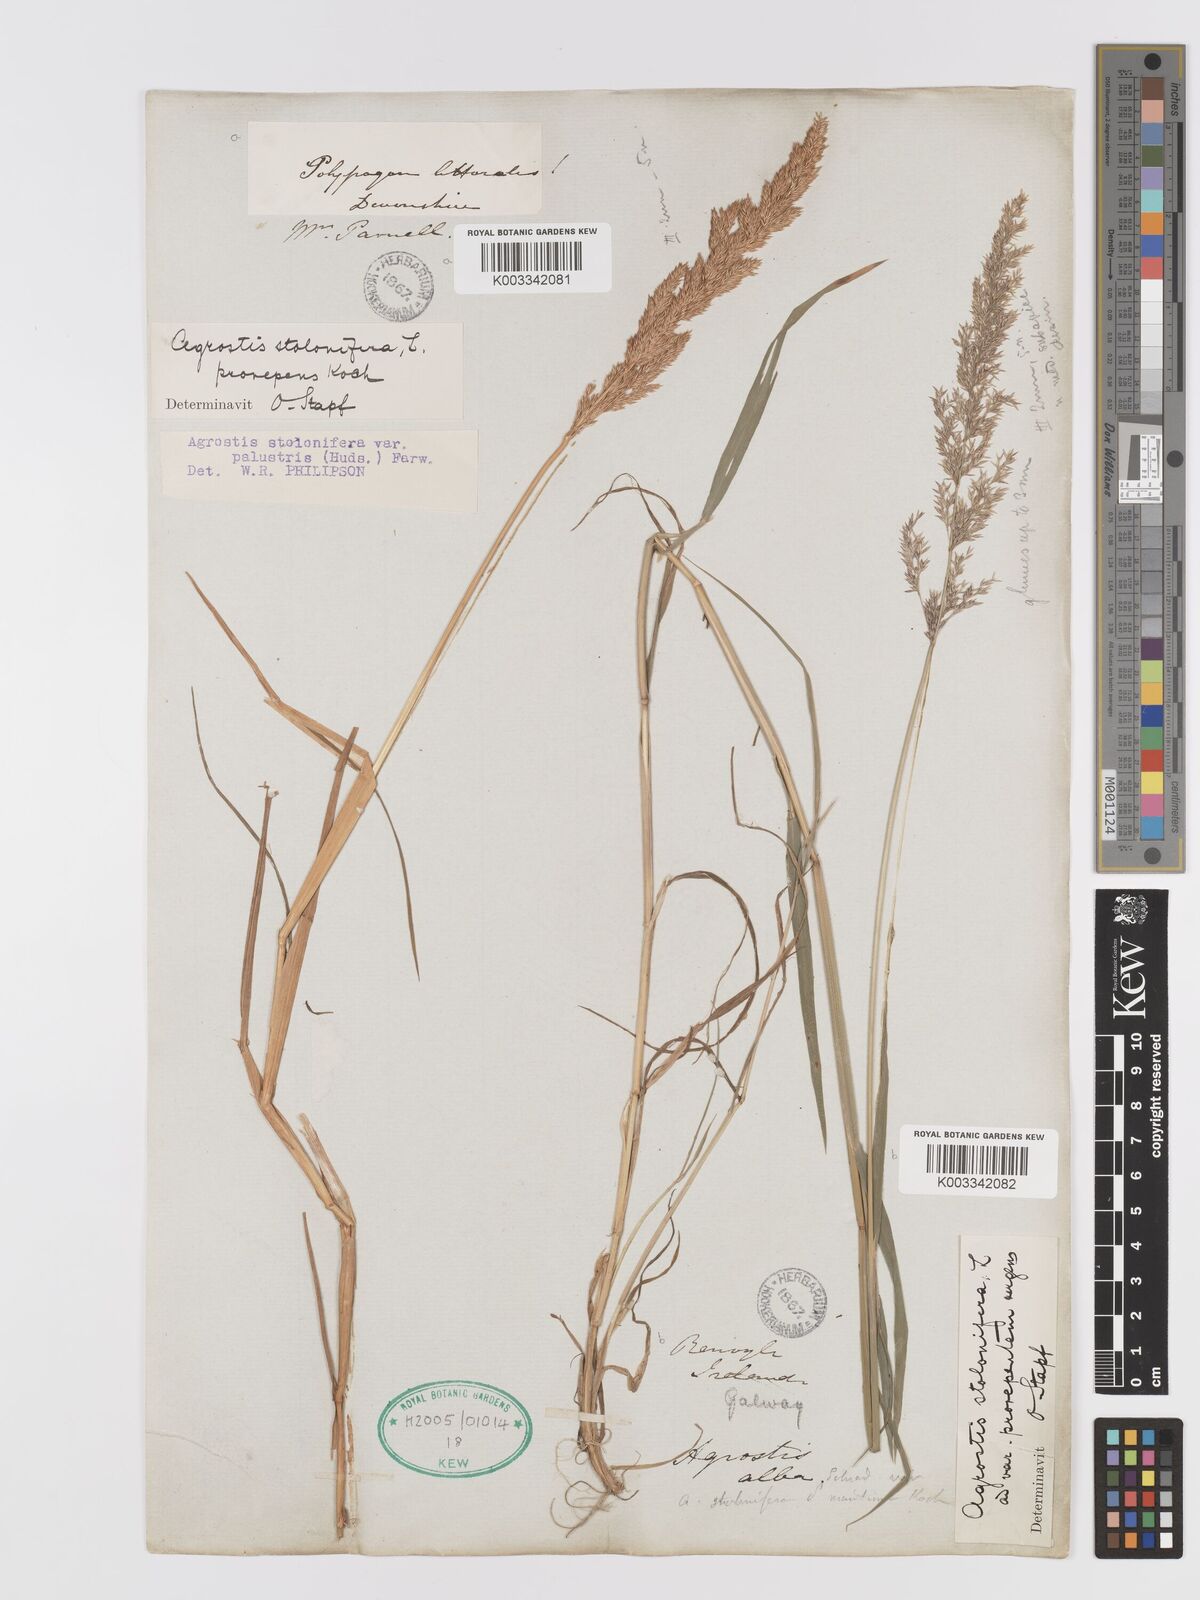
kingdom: Plantae
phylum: Tracheophyta
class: Liliopsida
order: Poales
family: Poaceae
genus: Agrostis
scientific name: Agrostis stolonifera
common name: Creeping bentgrass
